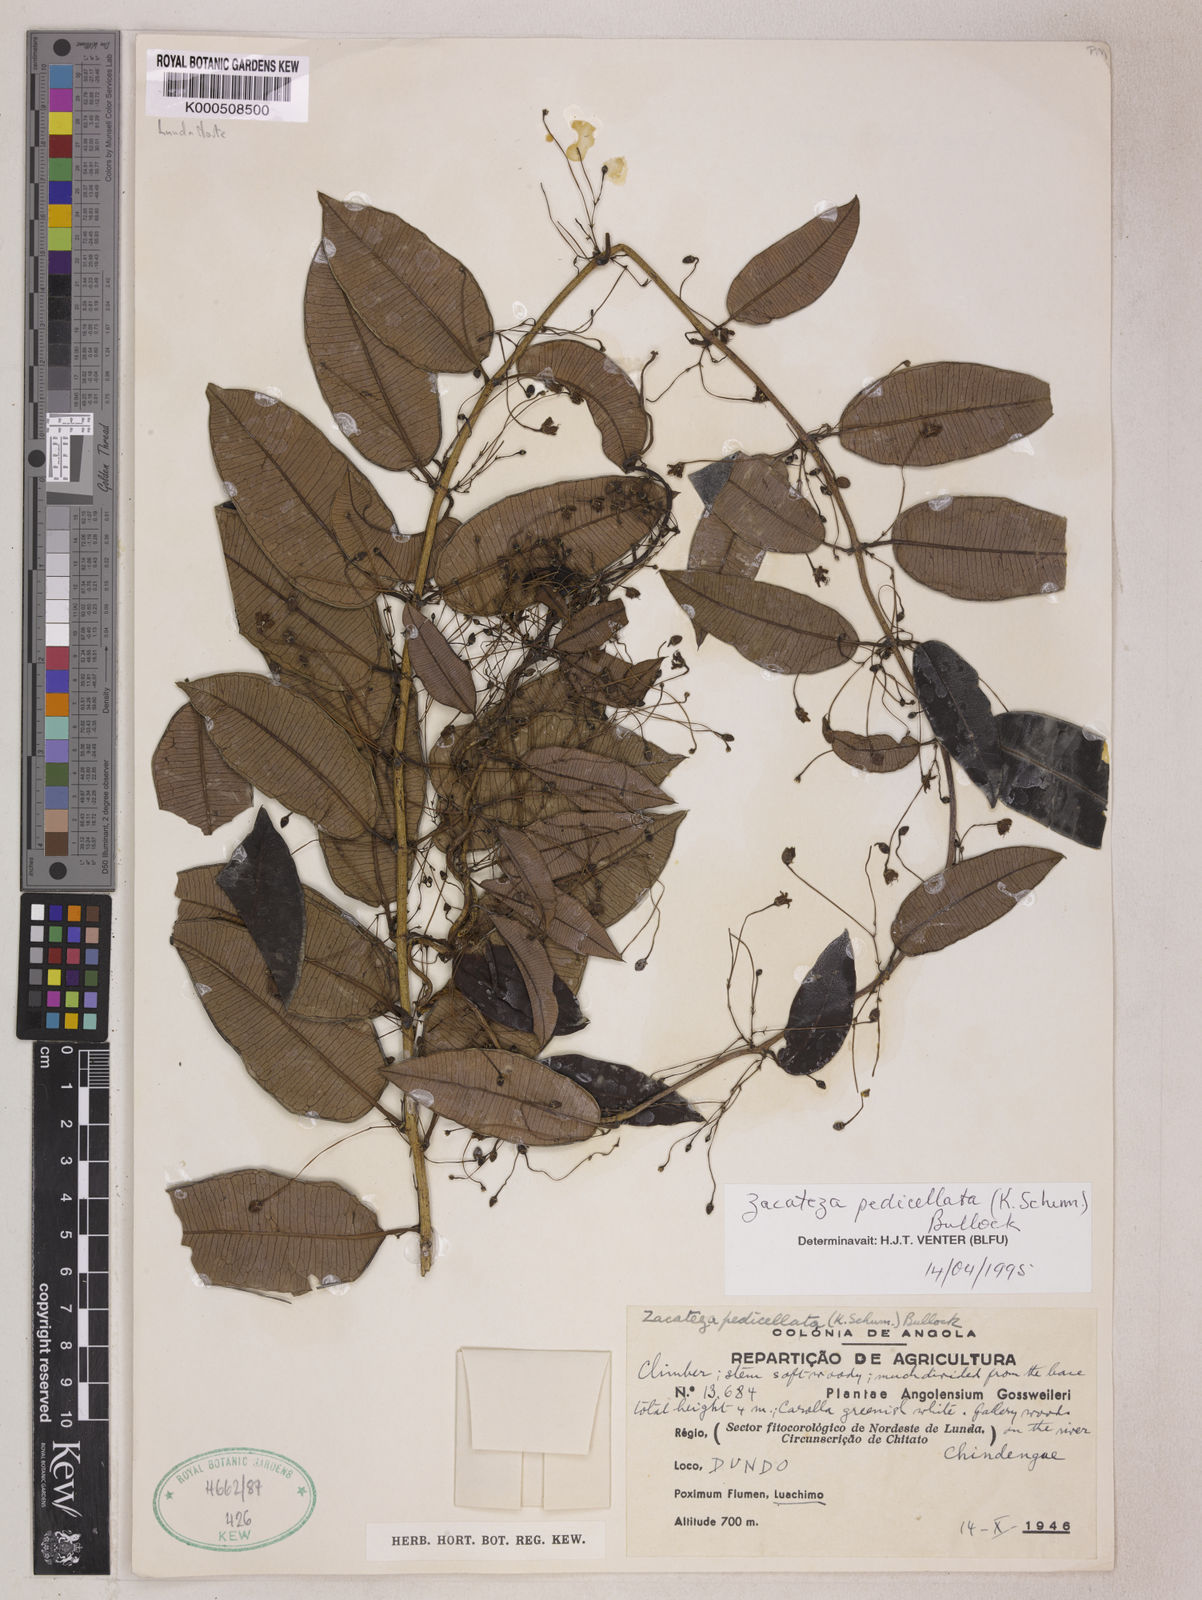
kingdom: Plantae
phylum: Tracheophyta
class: Magnoliopsida
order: Gentianales
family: Apocynaceae
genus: Zacateza
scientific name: Zacateza pedicellata
